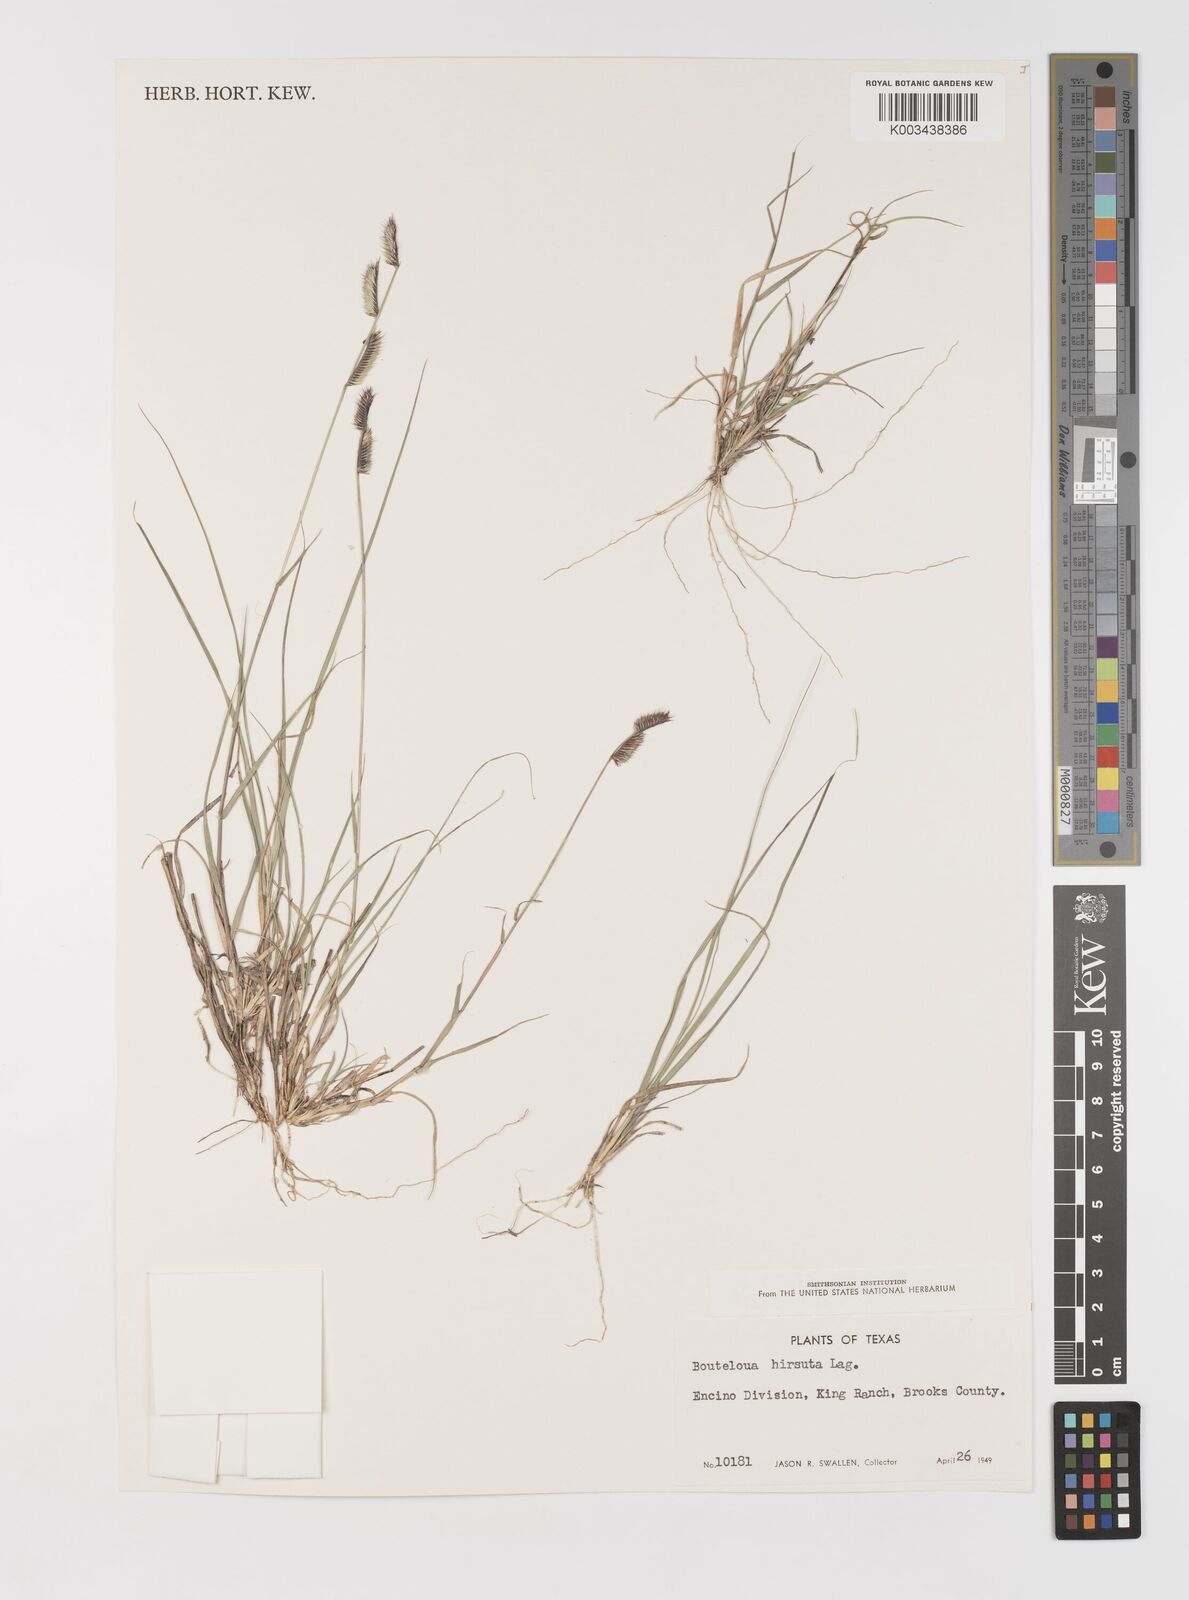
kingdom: Plantae
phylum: Tracheophyta
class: Liliopsida
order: Poales
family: Poaceae
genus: Bouteloua
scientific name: Bouteloua hirsuta
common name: Hairy grama
